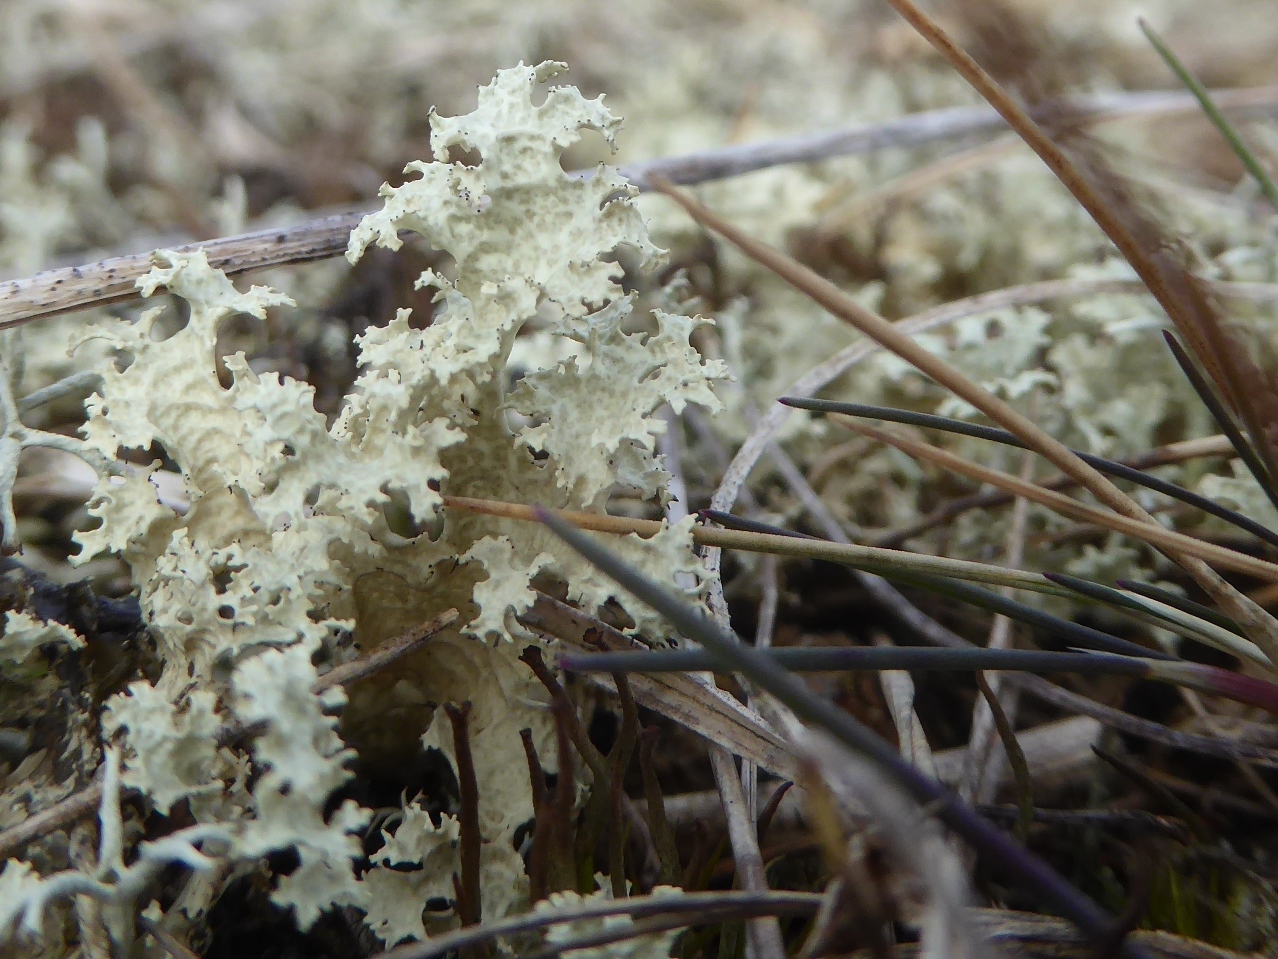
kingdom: Fungi
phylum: Ascomycota
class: Lecanoromycetes
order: Lecanorales
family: Parmeliaceae
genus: Nephromopsis
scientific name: Nephromopsis nivalis
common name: sne-kruslav
